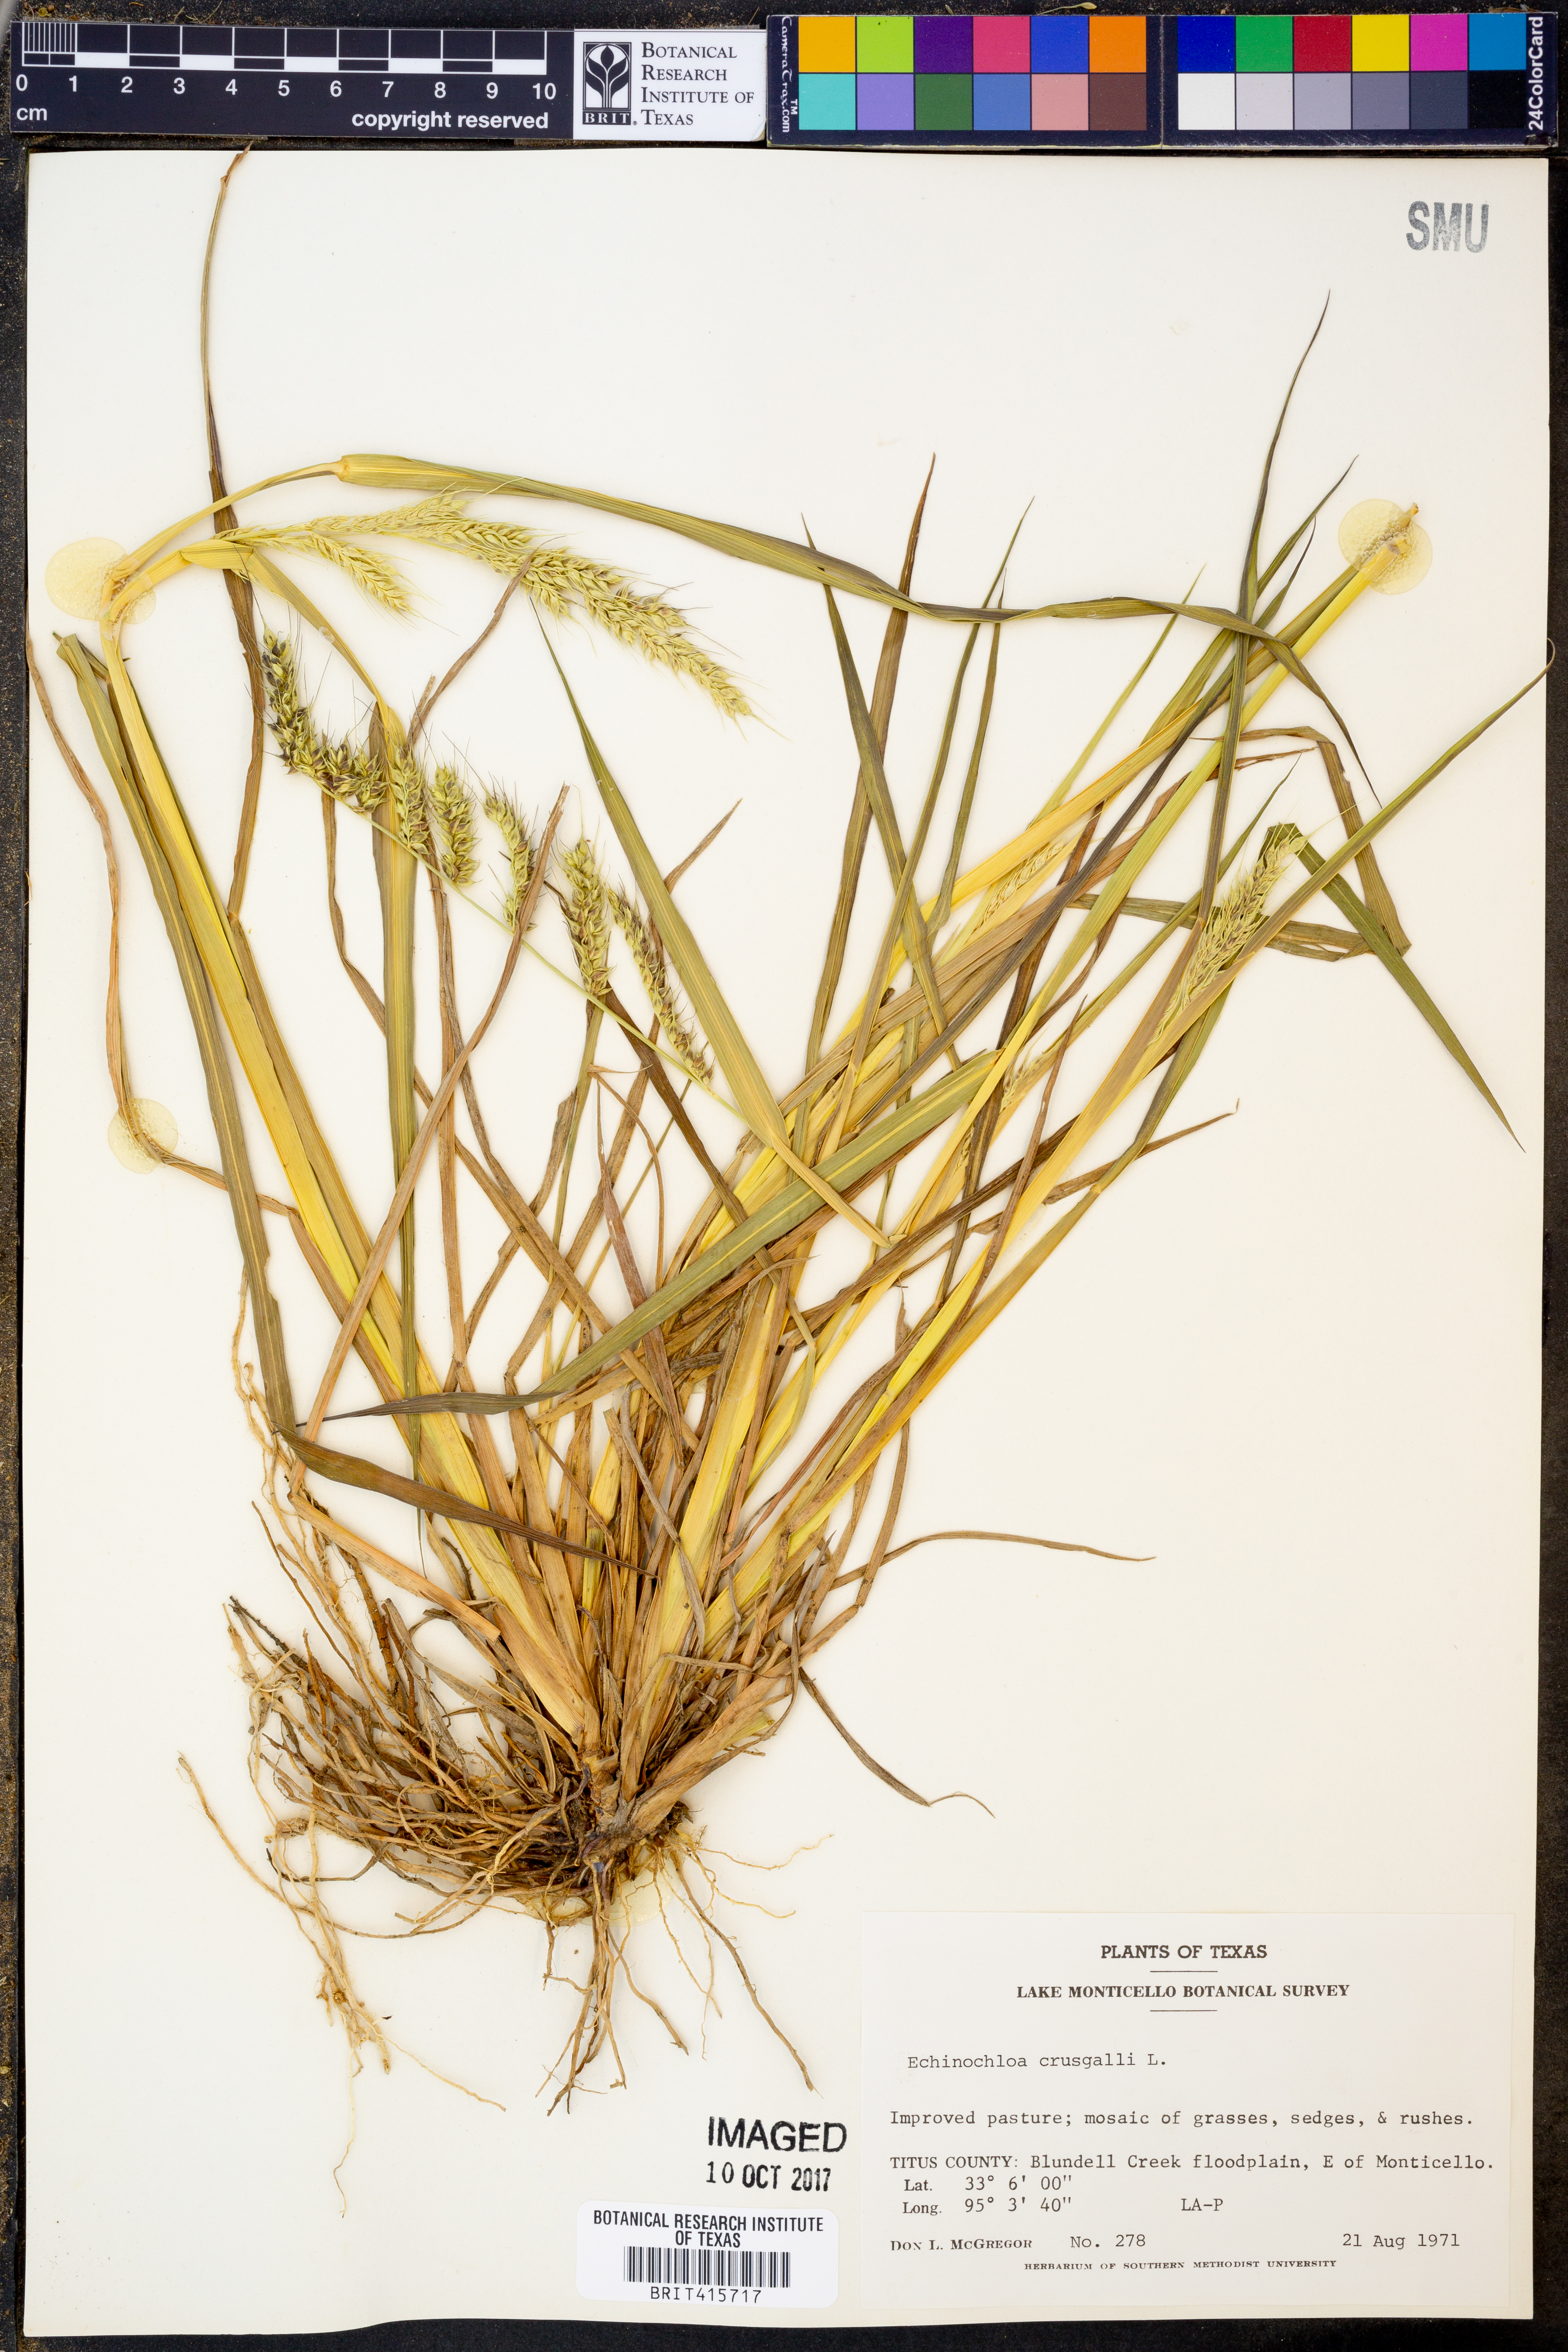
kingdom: Plantae
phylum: Tracheophyta
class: Liliopsida
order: Poales
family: Poaceae
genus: Echinochloa
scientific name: Echinochloa
